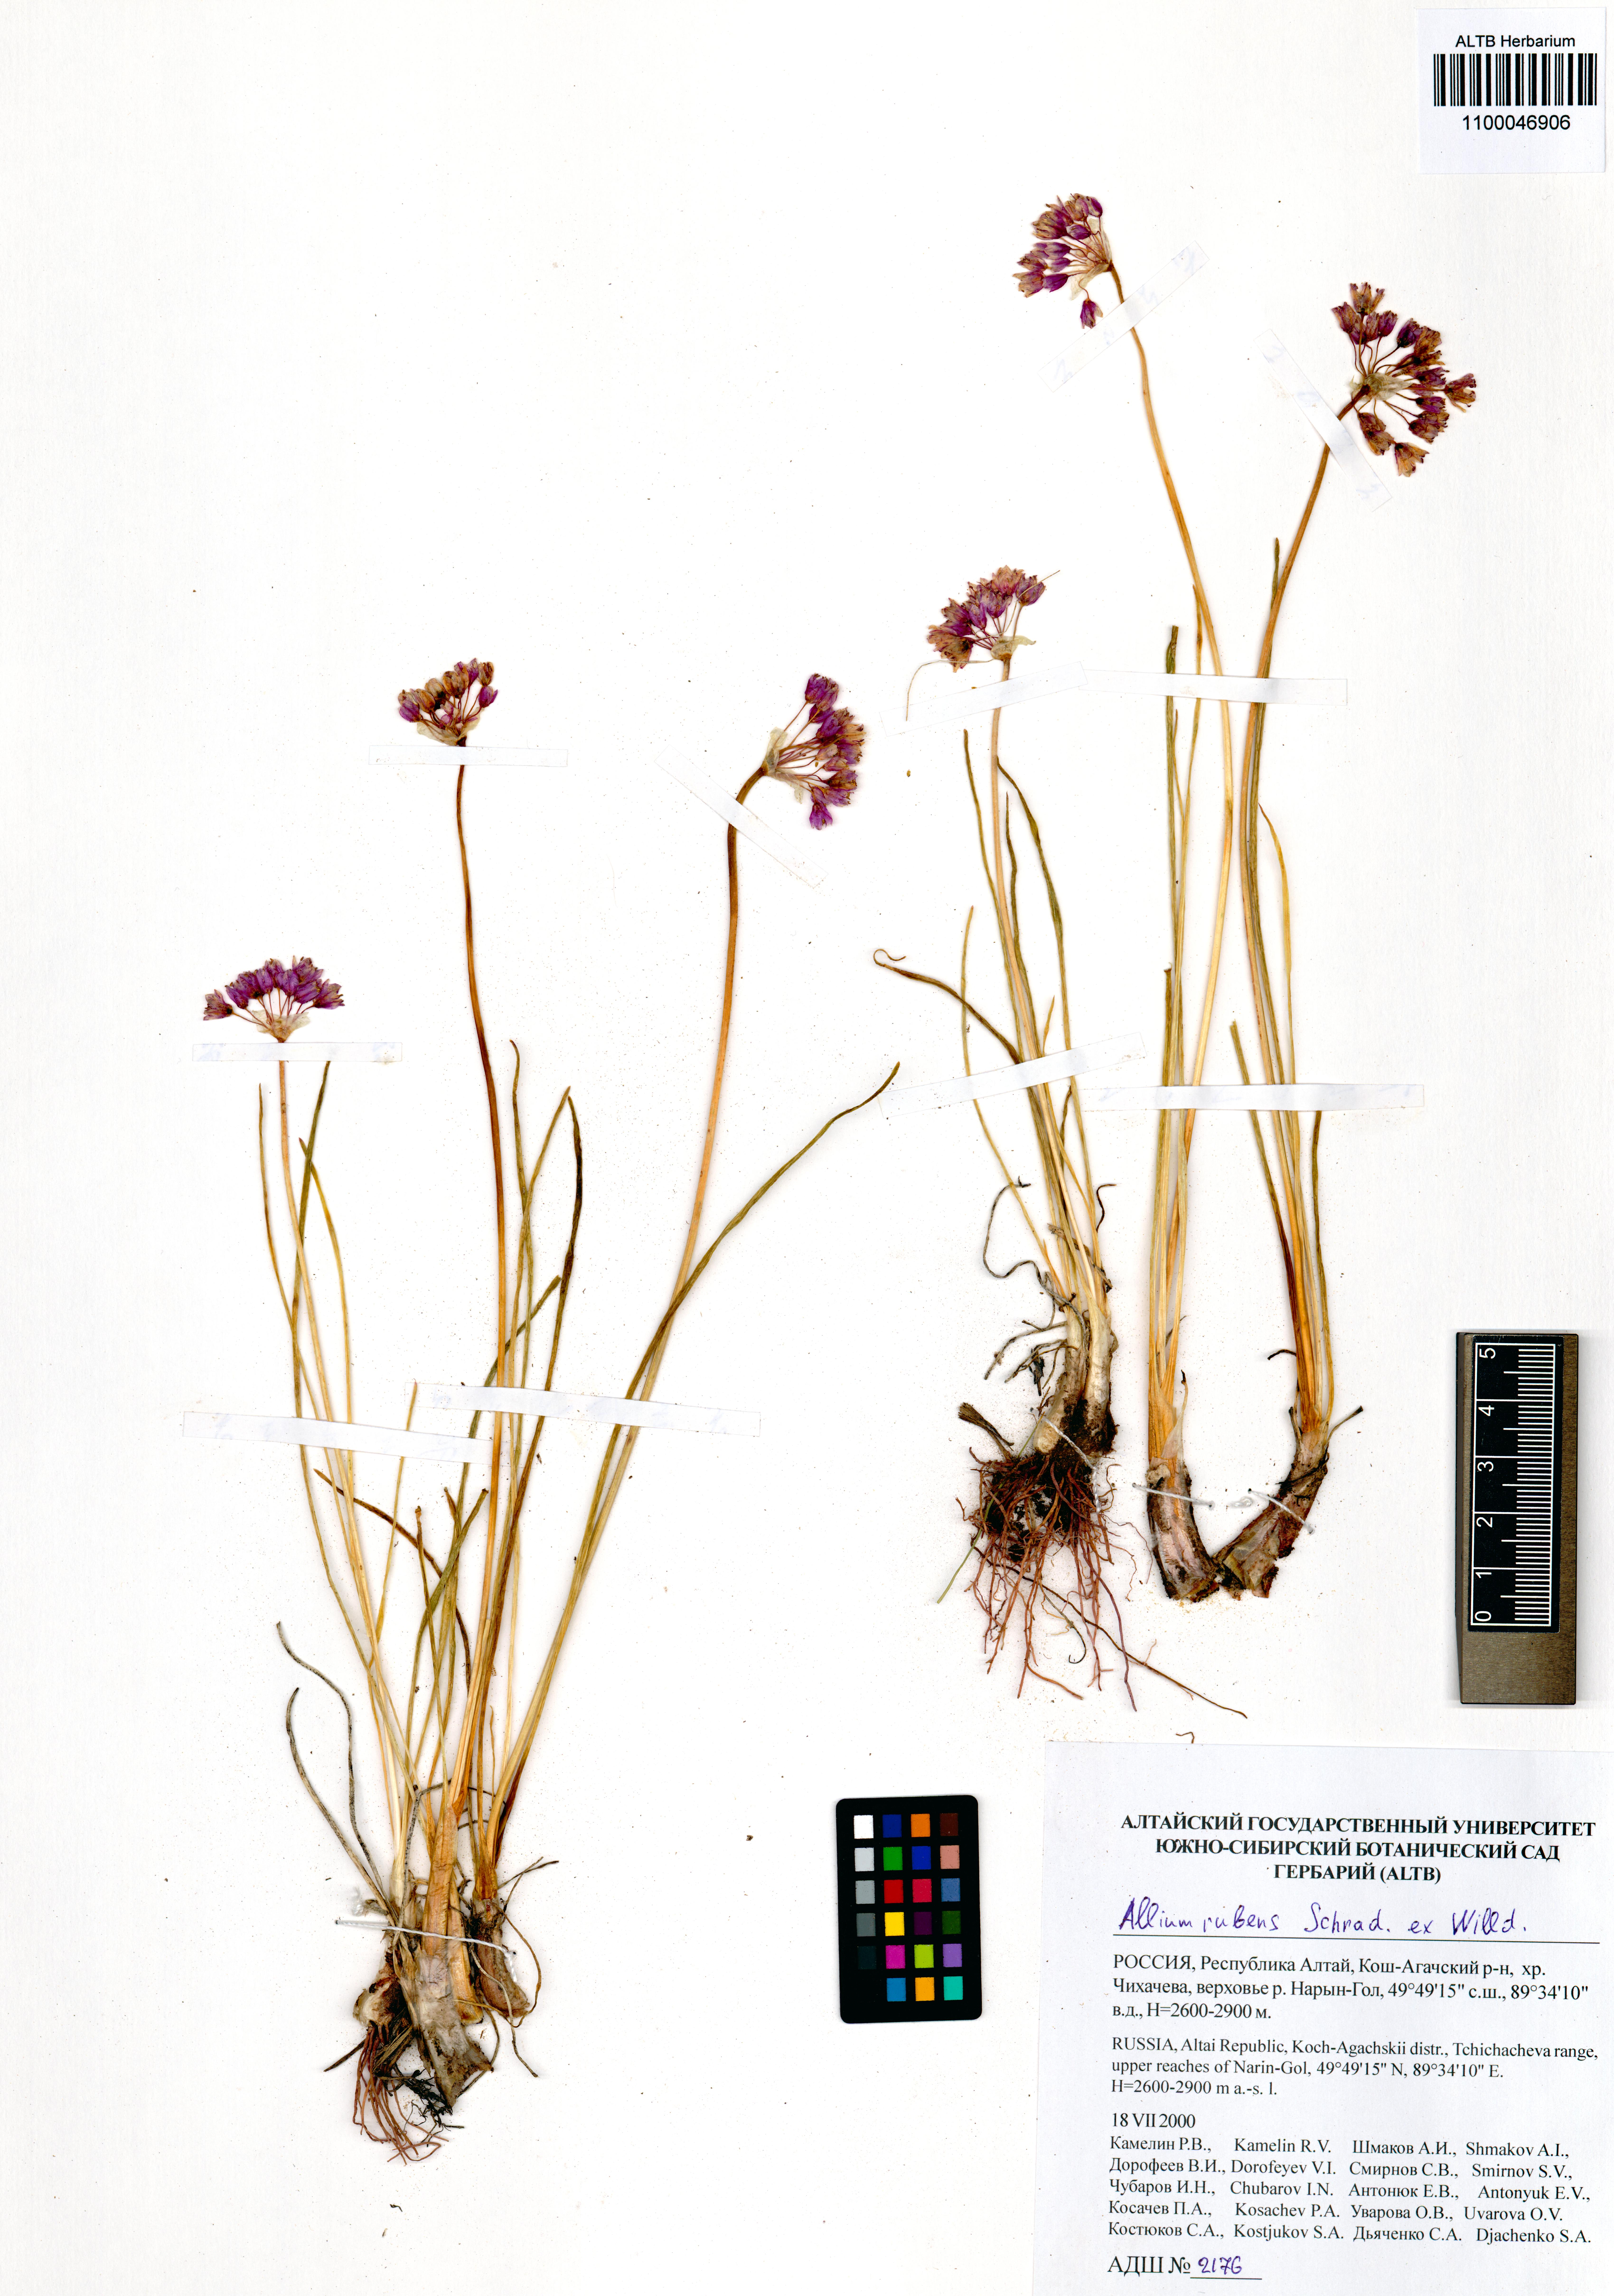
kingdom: Plantae
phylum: Tracheophyta
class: Liliopsida
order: Asparagales
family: Amaryllidaceae
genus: Allium
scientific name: Allium rubens
